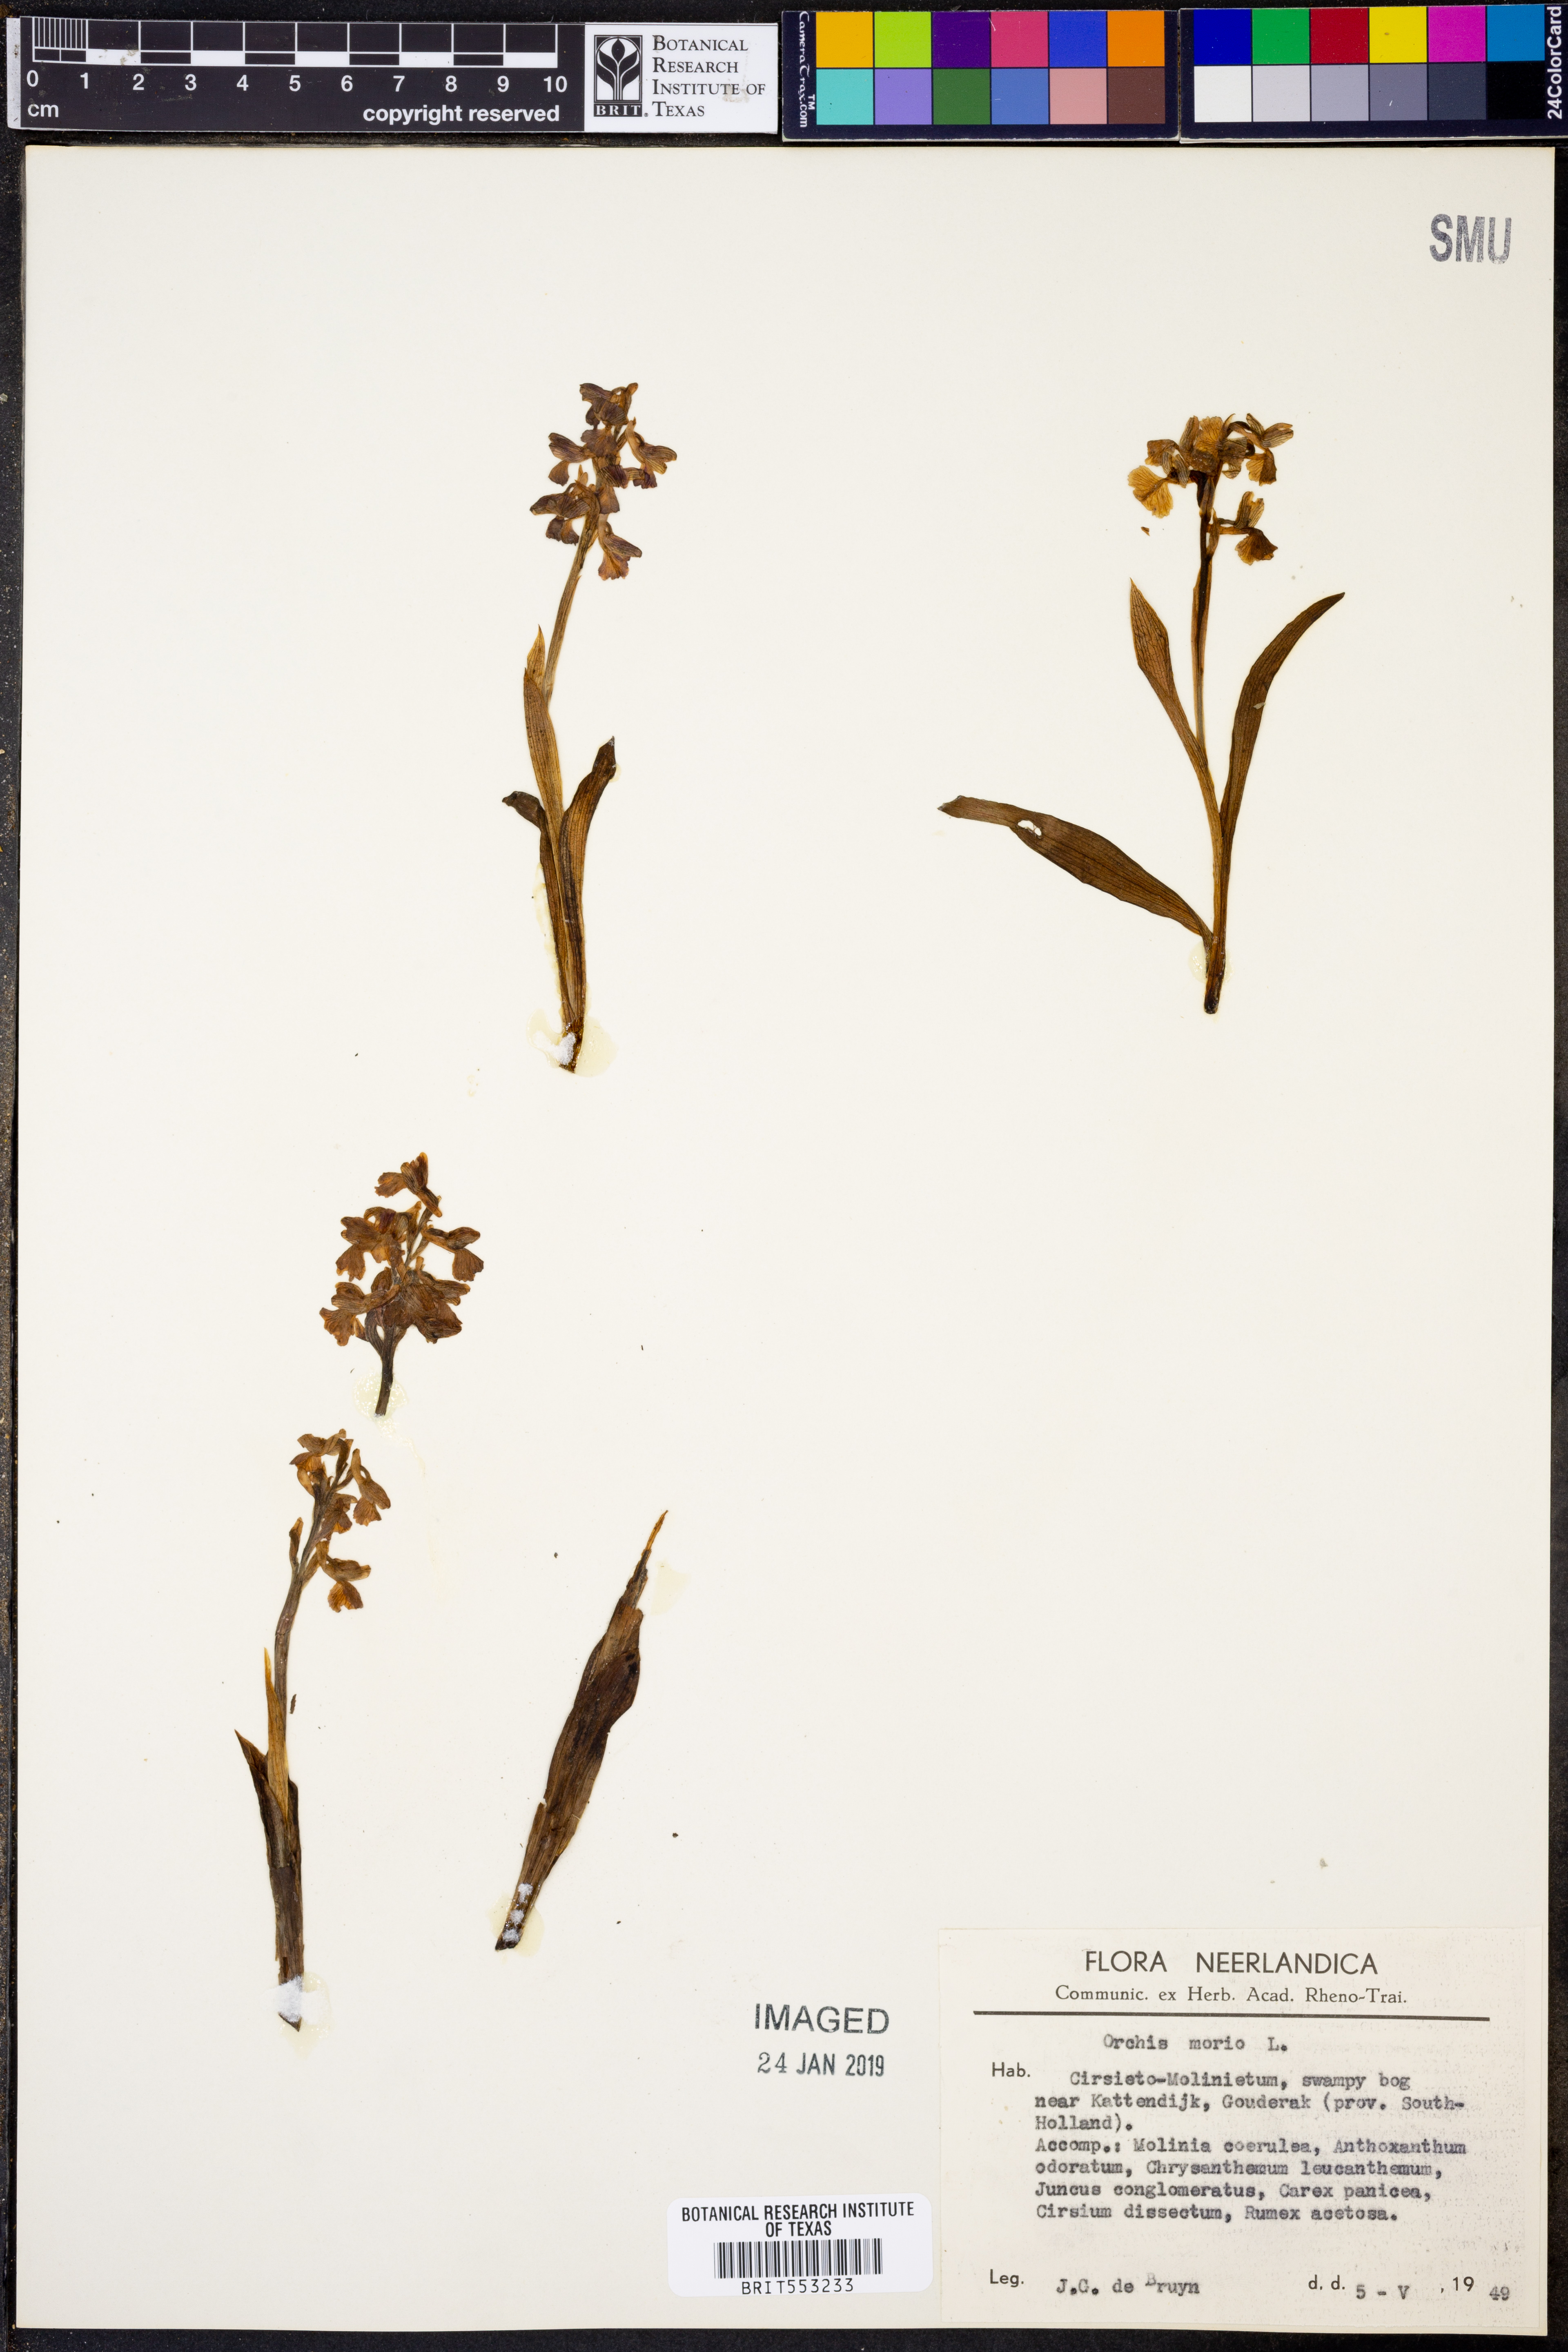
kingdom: Plantae
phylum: Tracheophyta
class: Liliopsida
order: Asparagales
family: Orchidaceae
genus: Anacamptis
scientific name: Anacamptis morio
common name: Green-winged orchid
